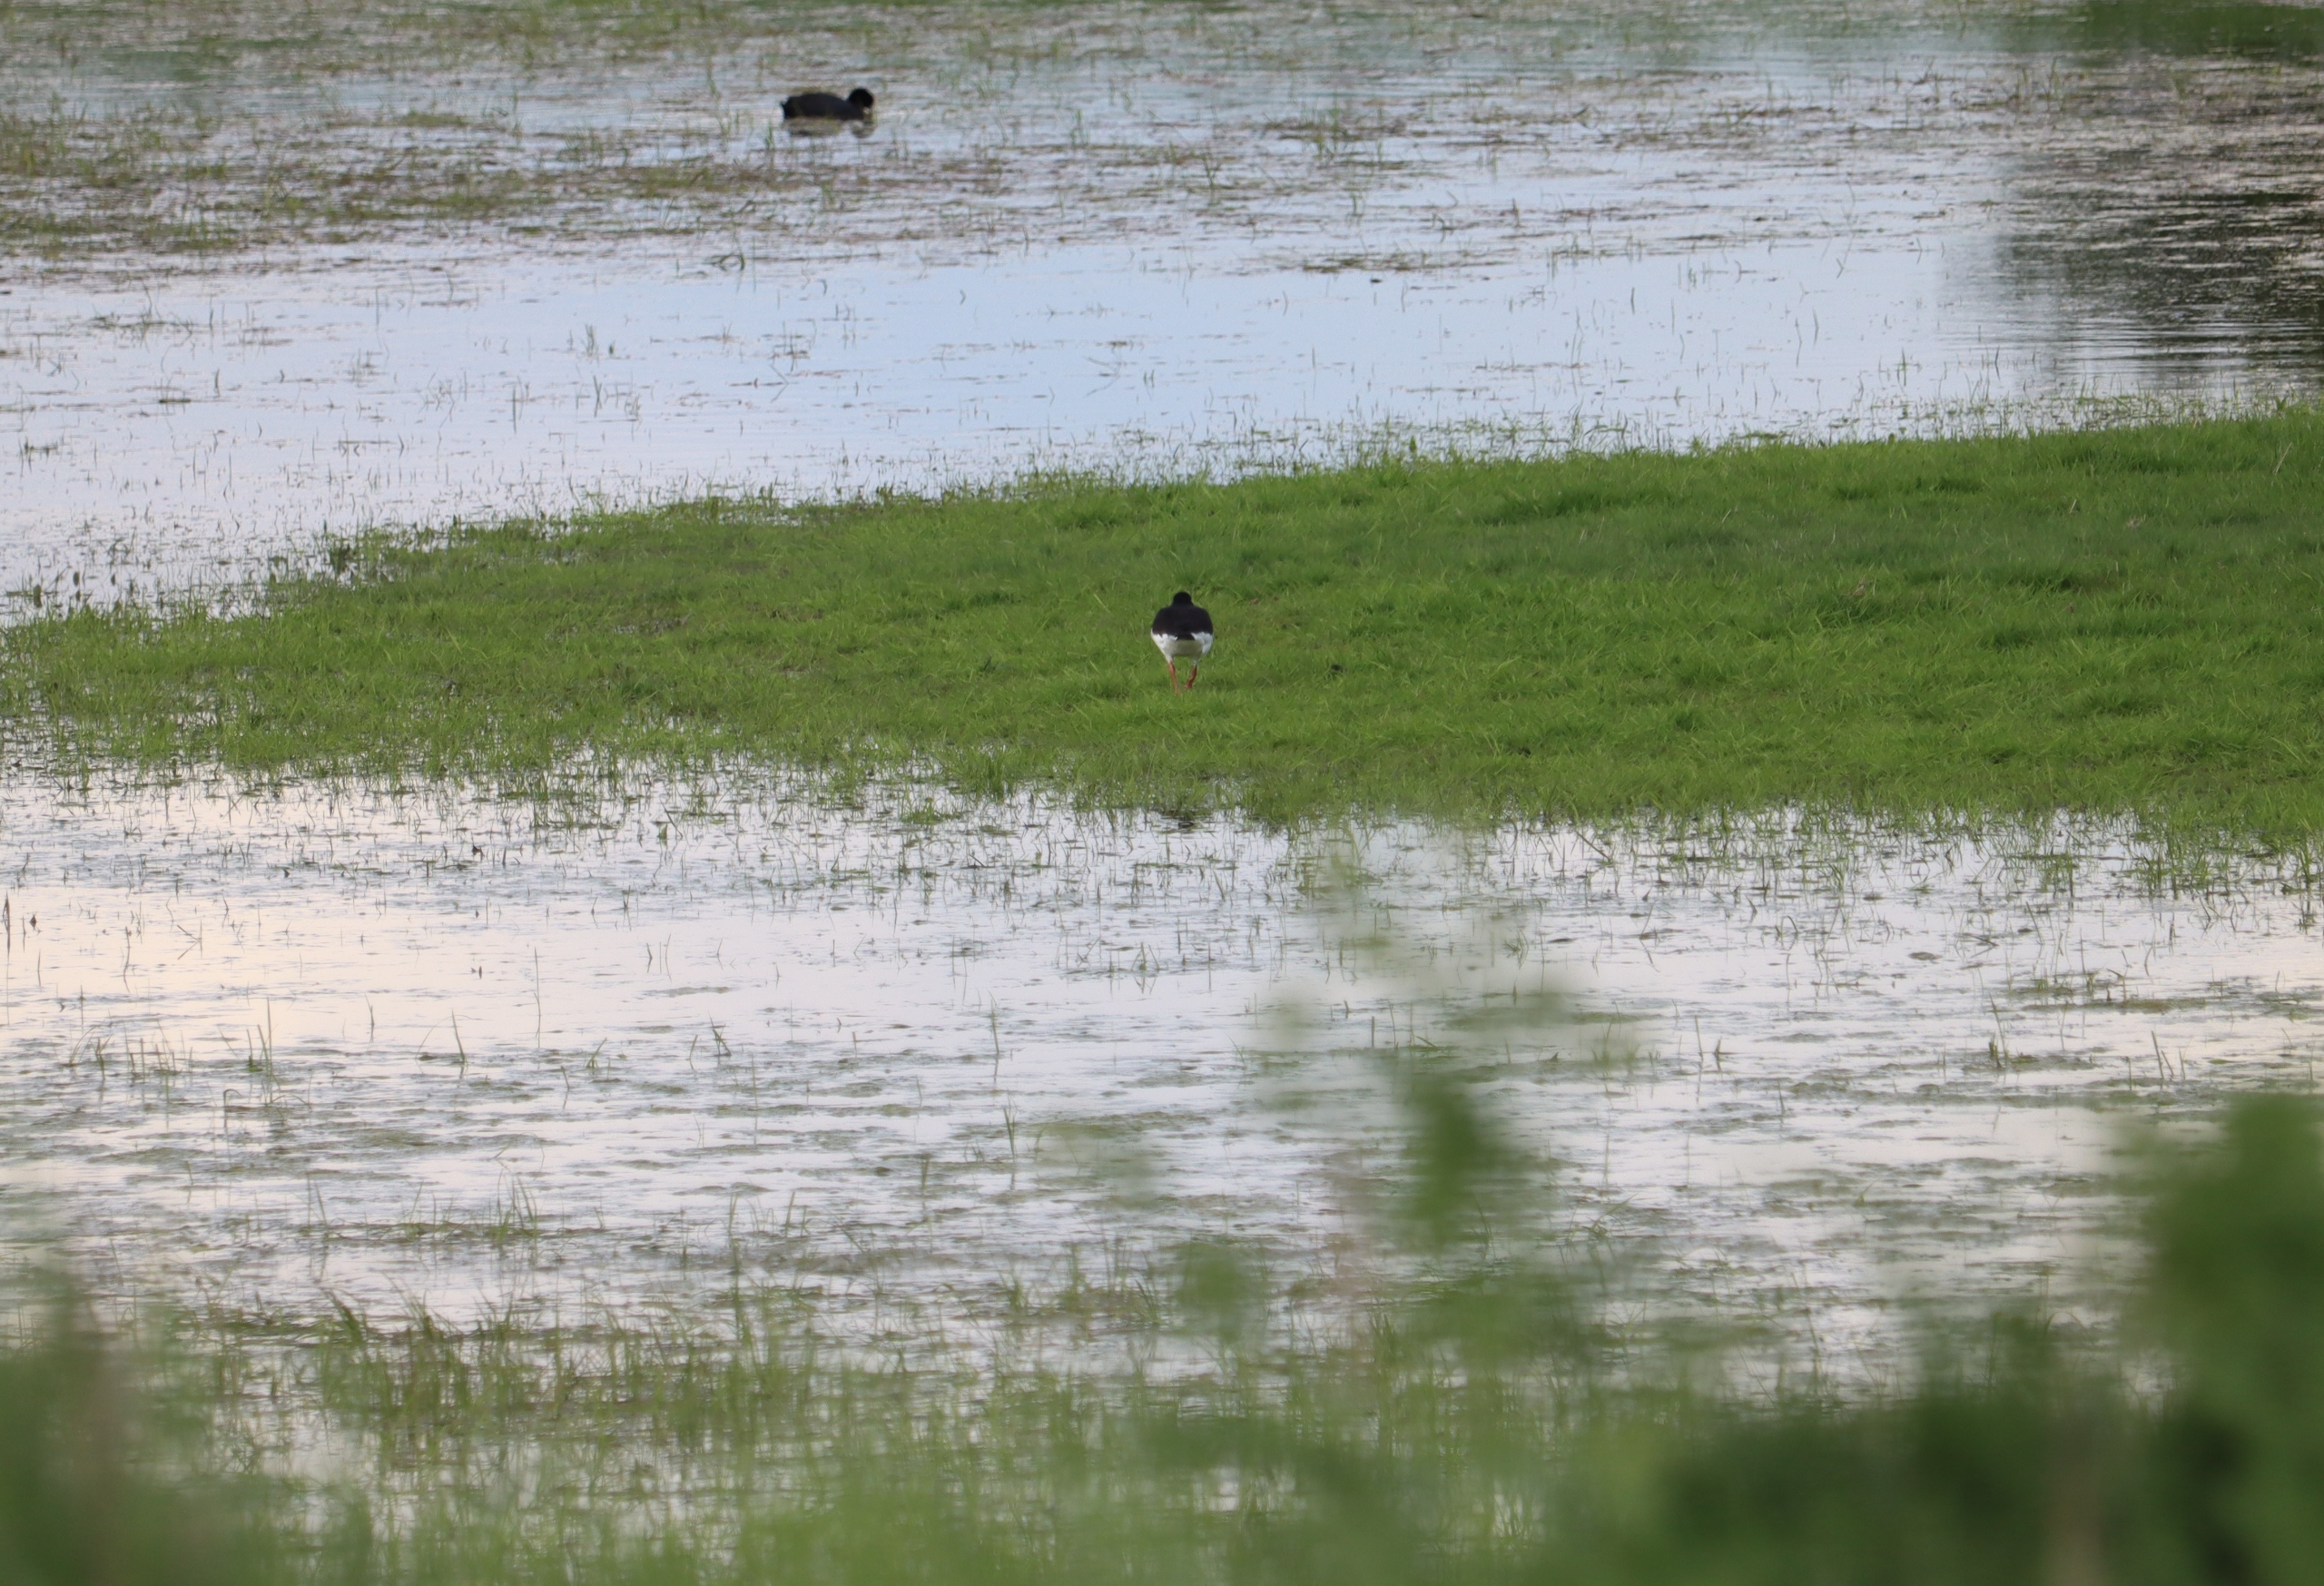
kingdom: Animalia
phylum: Chordata
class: Aves
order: Charadriiformes
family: Haematopodidae
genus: Haematopus
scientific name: Haematopus ostralegus
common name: Strandskade
